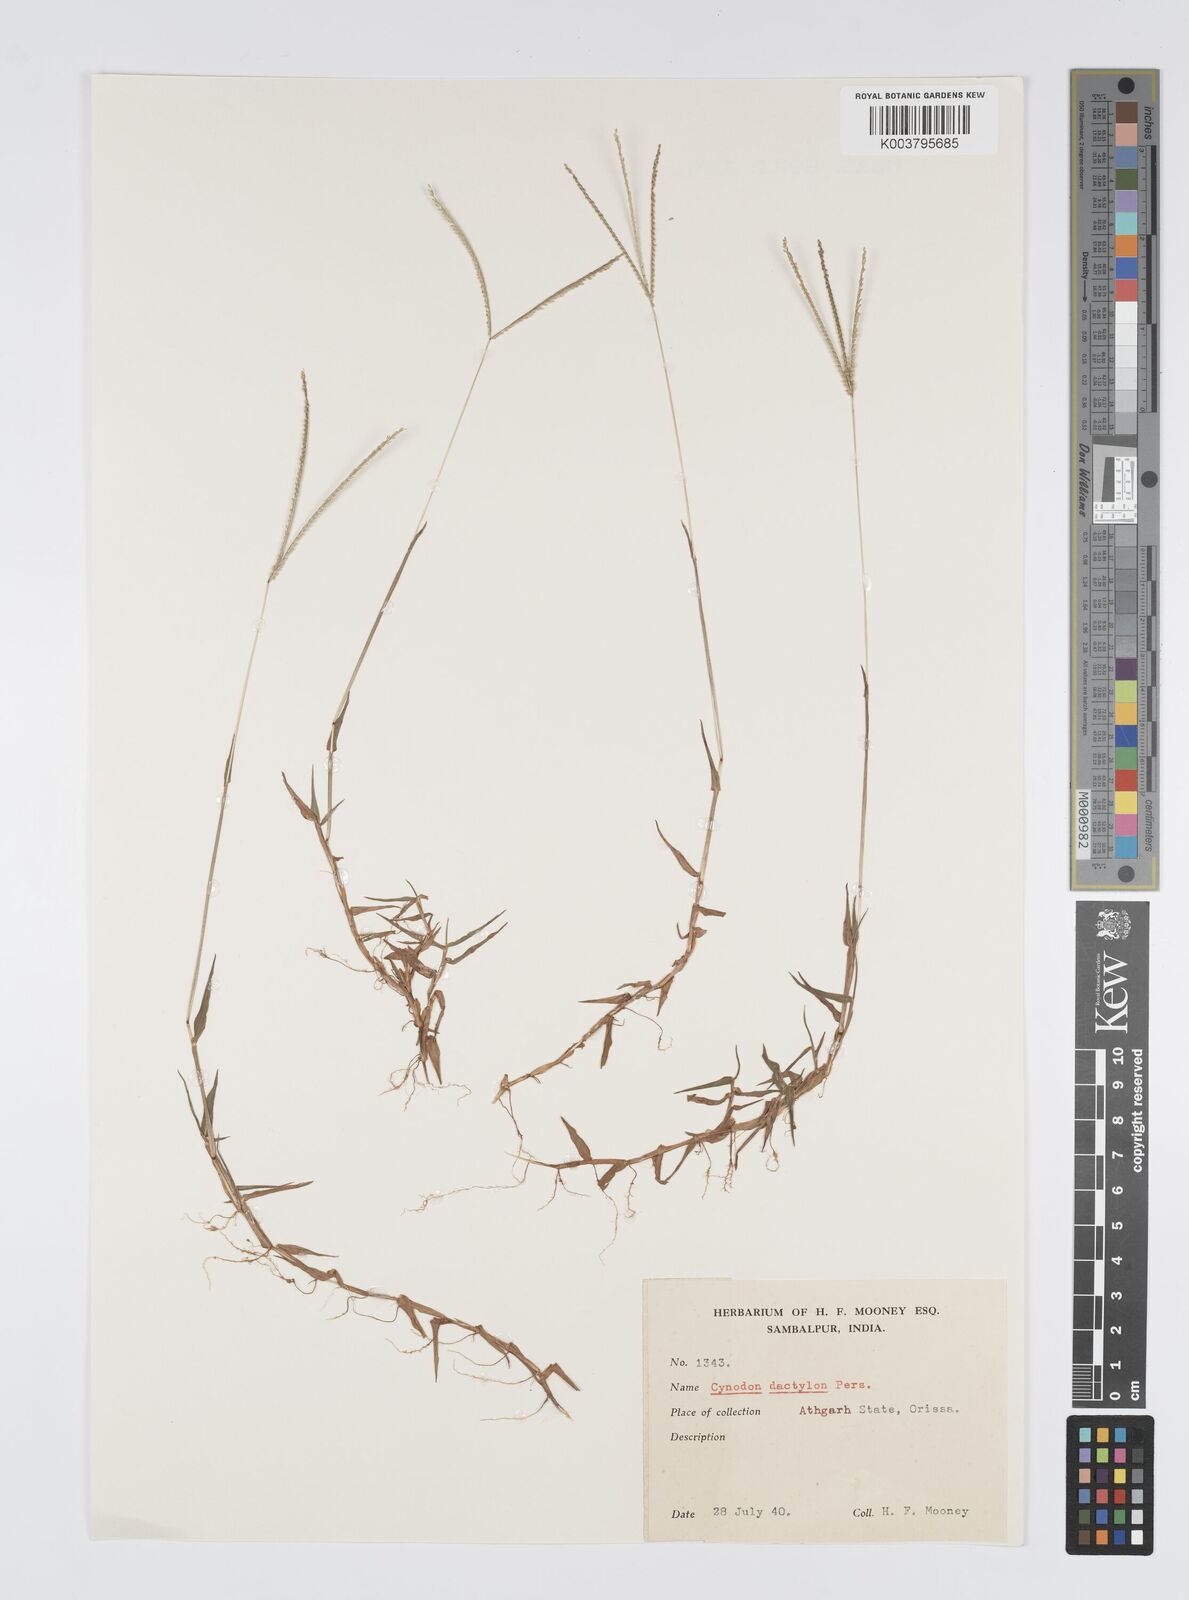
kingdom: Plantae
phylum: Tracheophyta
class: Liliopsida
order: Poales
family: Poaceae
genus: Digitaria
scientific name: Digitaria longiflora
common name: Wire crabgrass
